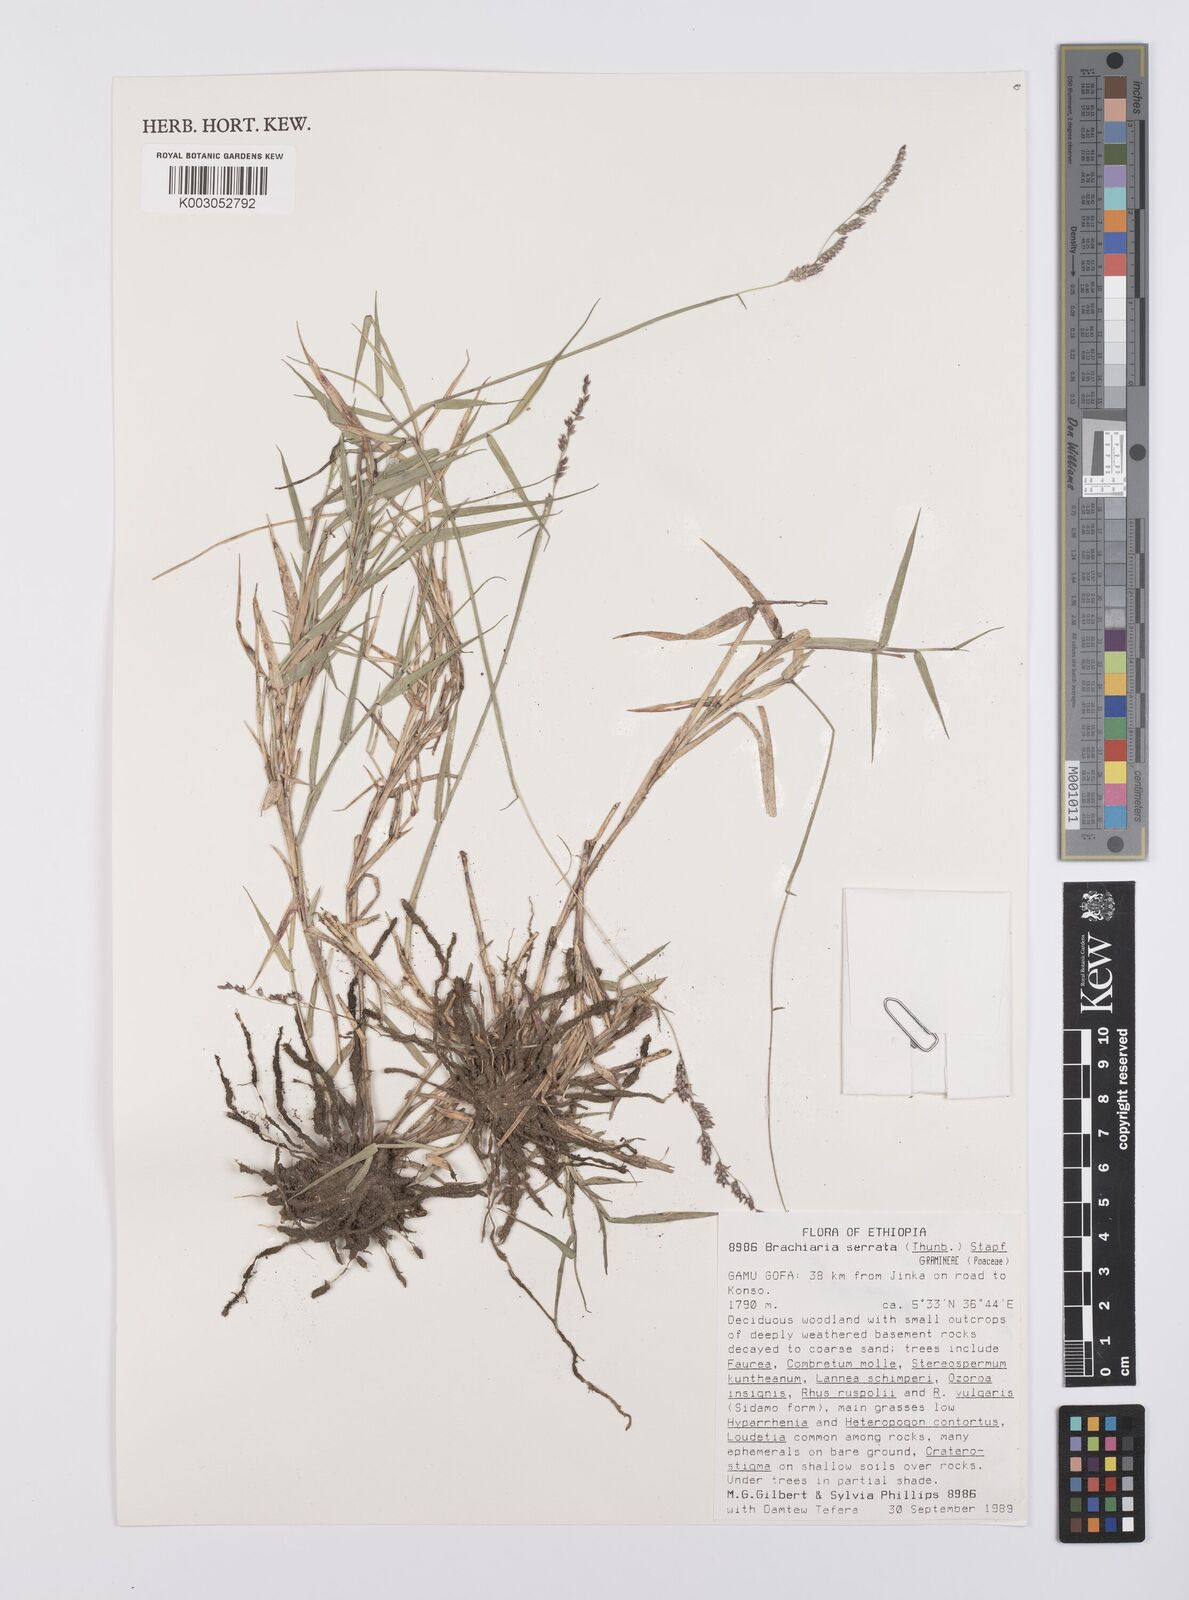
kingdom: Plantae
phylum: Tracheophyta
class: Liliopsida
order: Poales
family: Poaceae
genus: Urochloa
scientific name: Urochloa serrata
